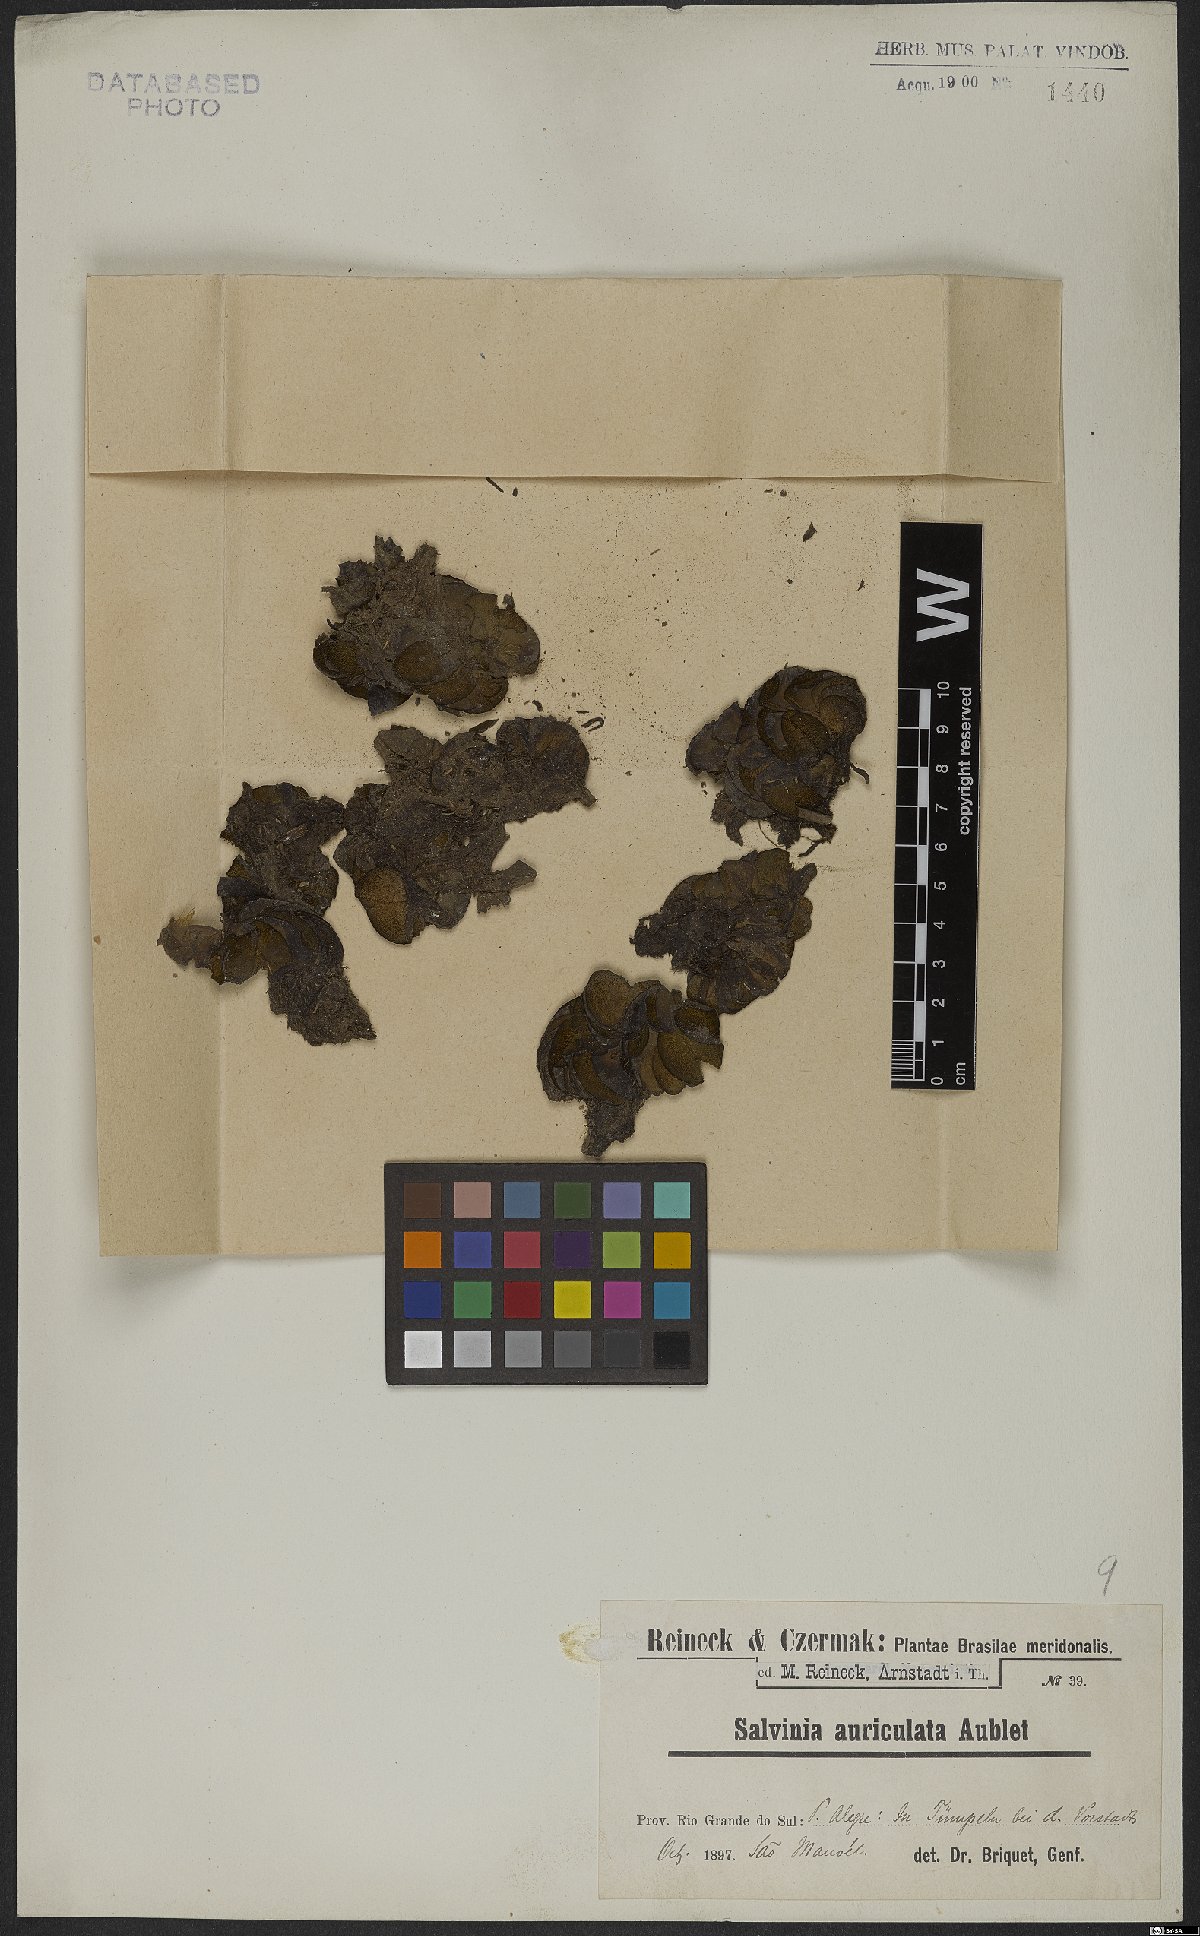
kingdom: Plantae
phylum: Tracheophyta
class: Polypodiopsida
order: Salviniales
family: Salviniaceae
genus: Salvinia
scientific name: Salvinia auriculata
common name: African payal
